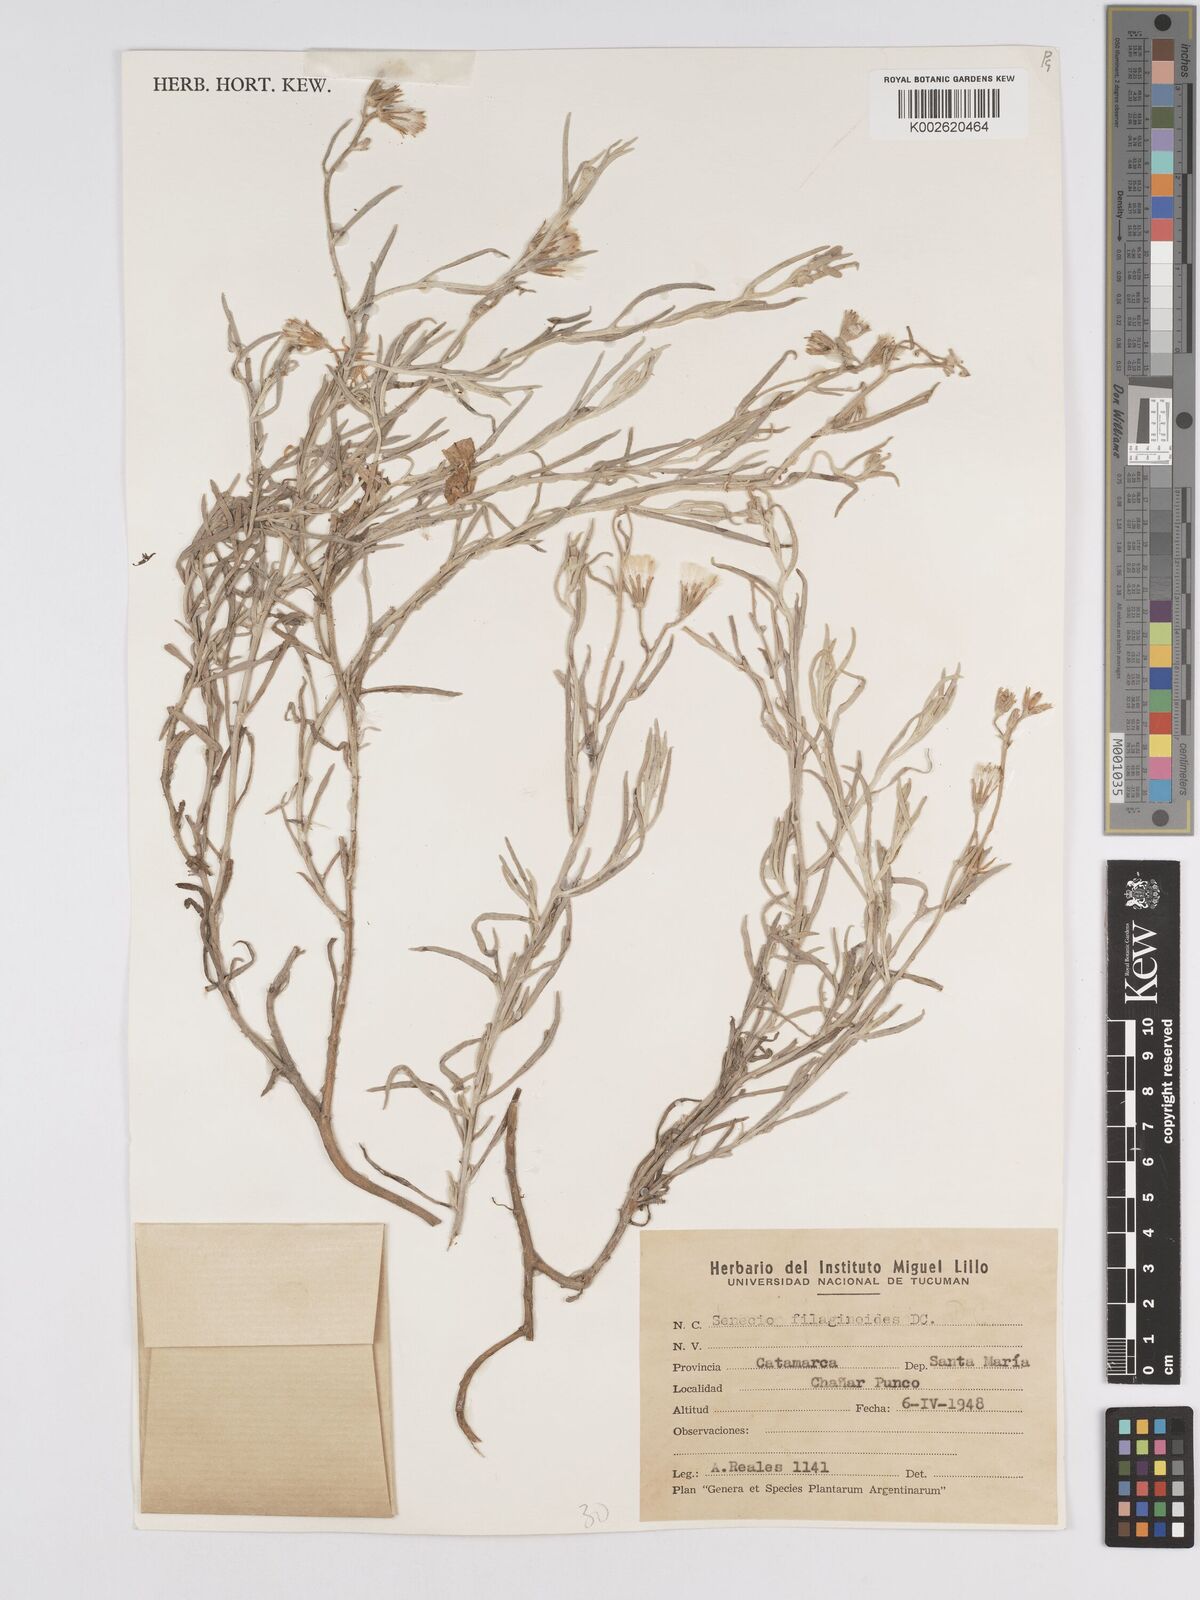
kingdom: Plantae
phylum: Tracheophyta
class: Magnoliopsida
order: Asterales
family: Asteraceae
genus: Senecio
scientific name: Senecio filaginoides
